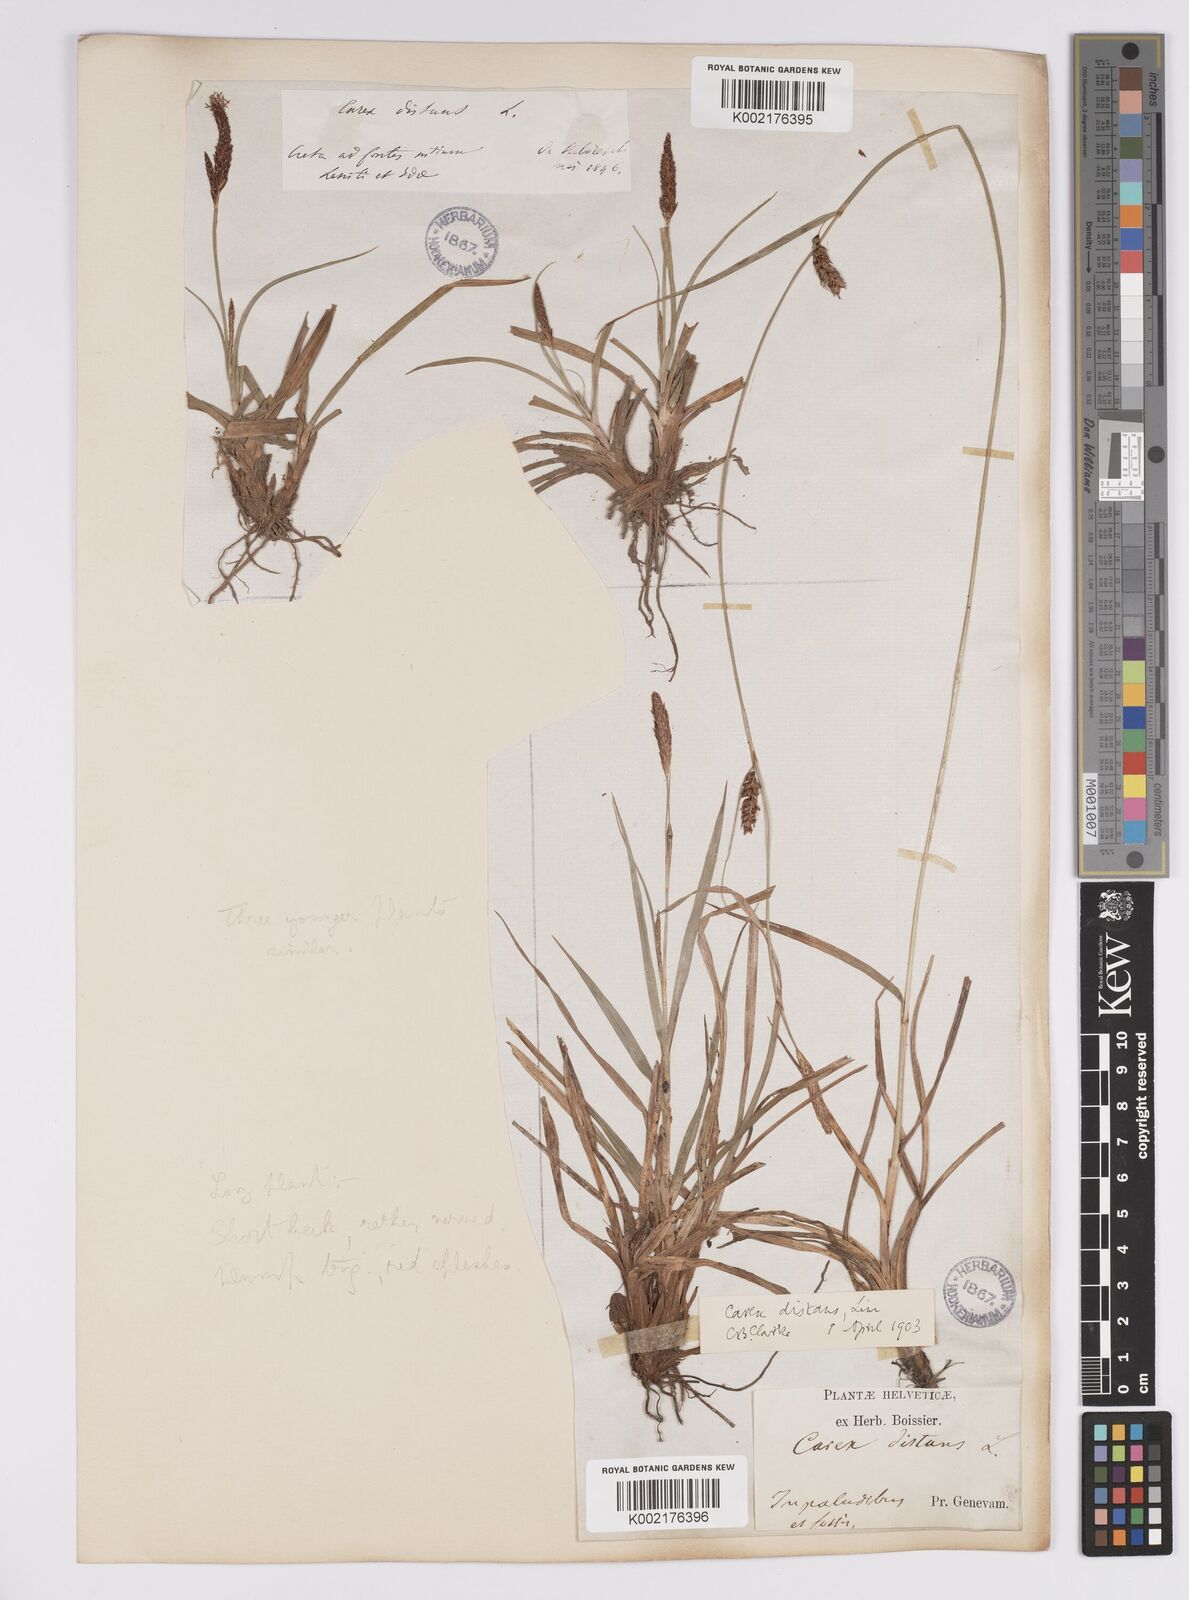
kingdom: Plantae
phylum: Tracheophyta
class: Liliopsida
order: Poales
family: Cyperaceae
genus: Carex
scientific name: Carex distans
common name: Distant sedge
